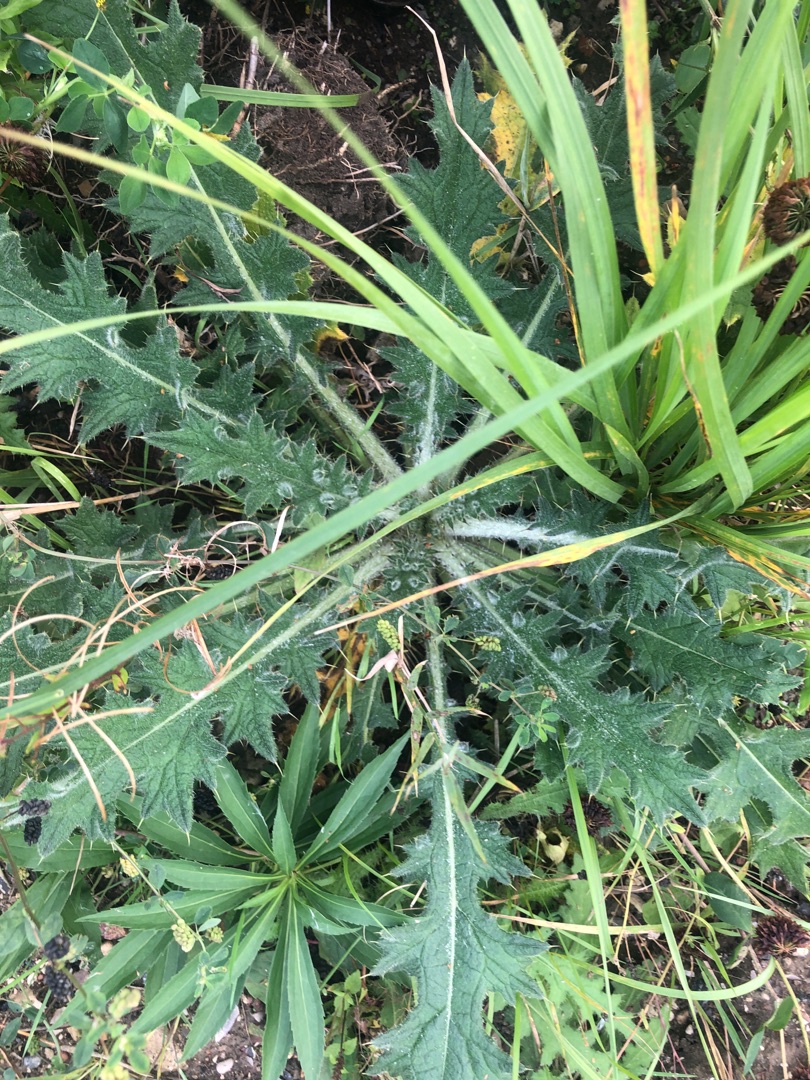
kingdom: Plantae
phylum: Tracheophyta
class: Magnoliopsida
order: Asterales
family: Asteraceae
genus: Cirsium
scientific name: Cirsium vulgare
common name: Horse-tidsel
